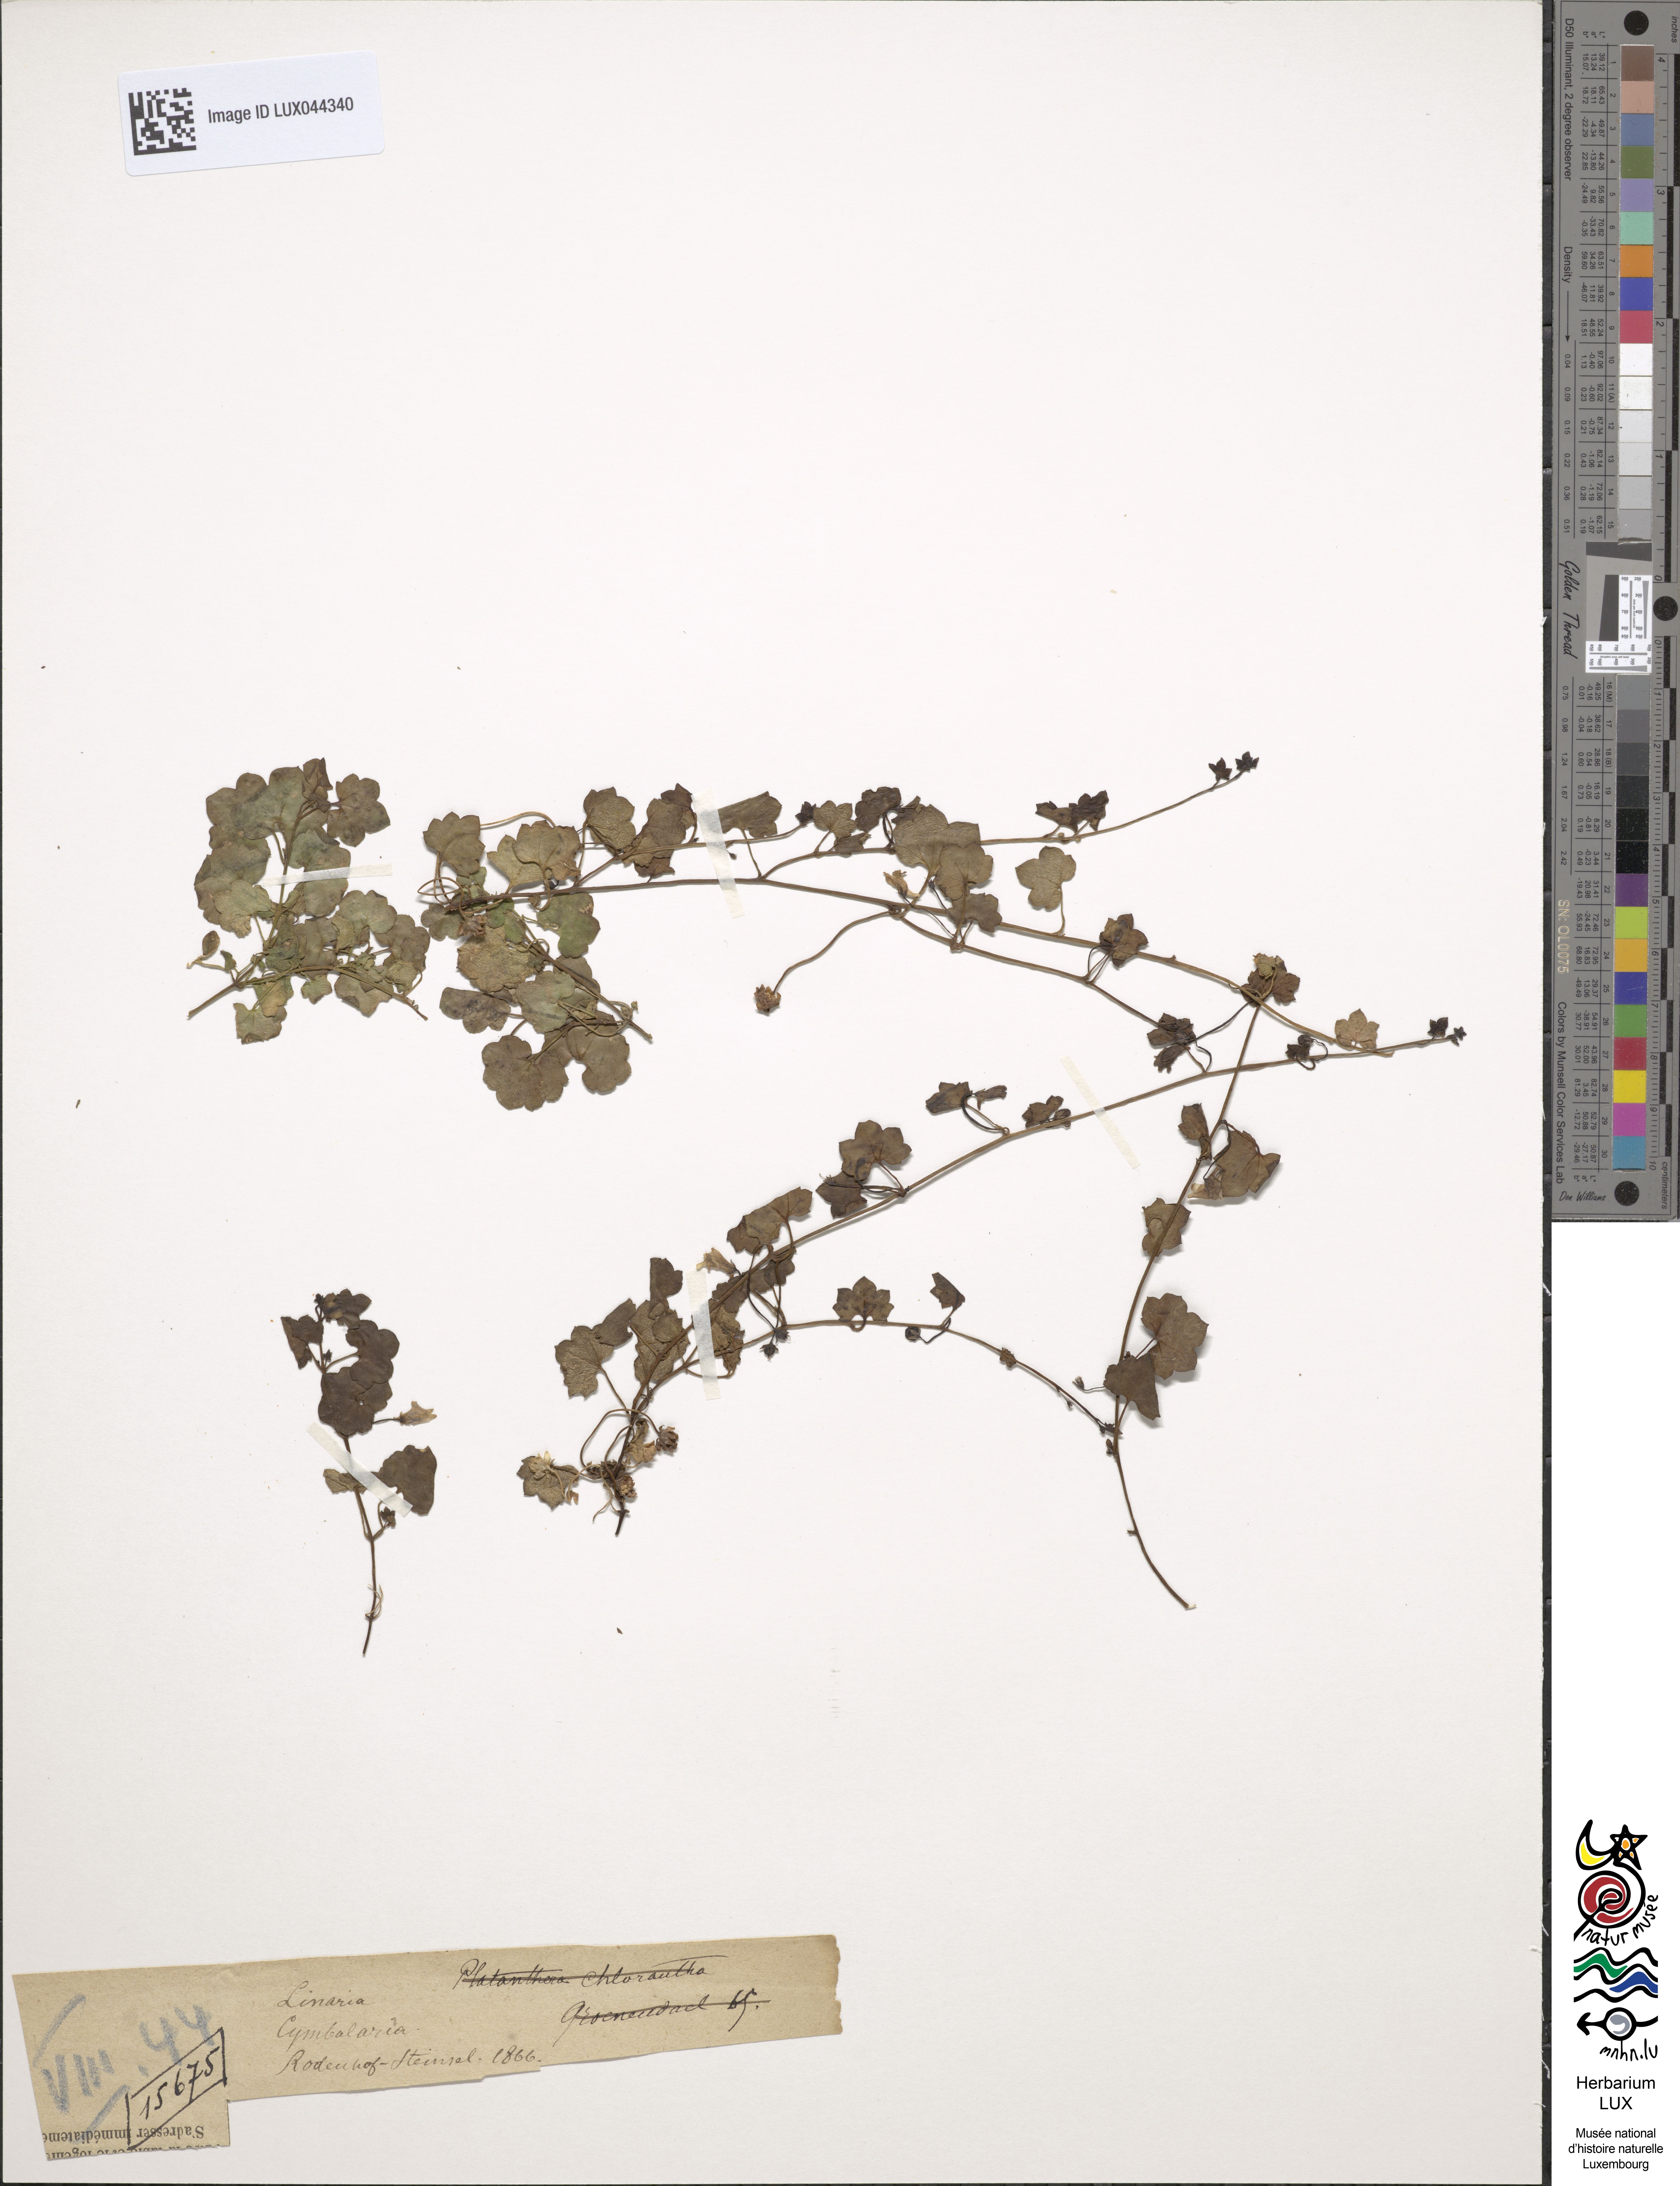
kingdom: Plantae
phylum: Tracheophyta
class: Magnoliopsida
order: Lamiales
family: Plantaginaceae
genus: Cymbalaria
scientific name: Cymbalaria muralis
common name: Ivy-leaved toadflax
